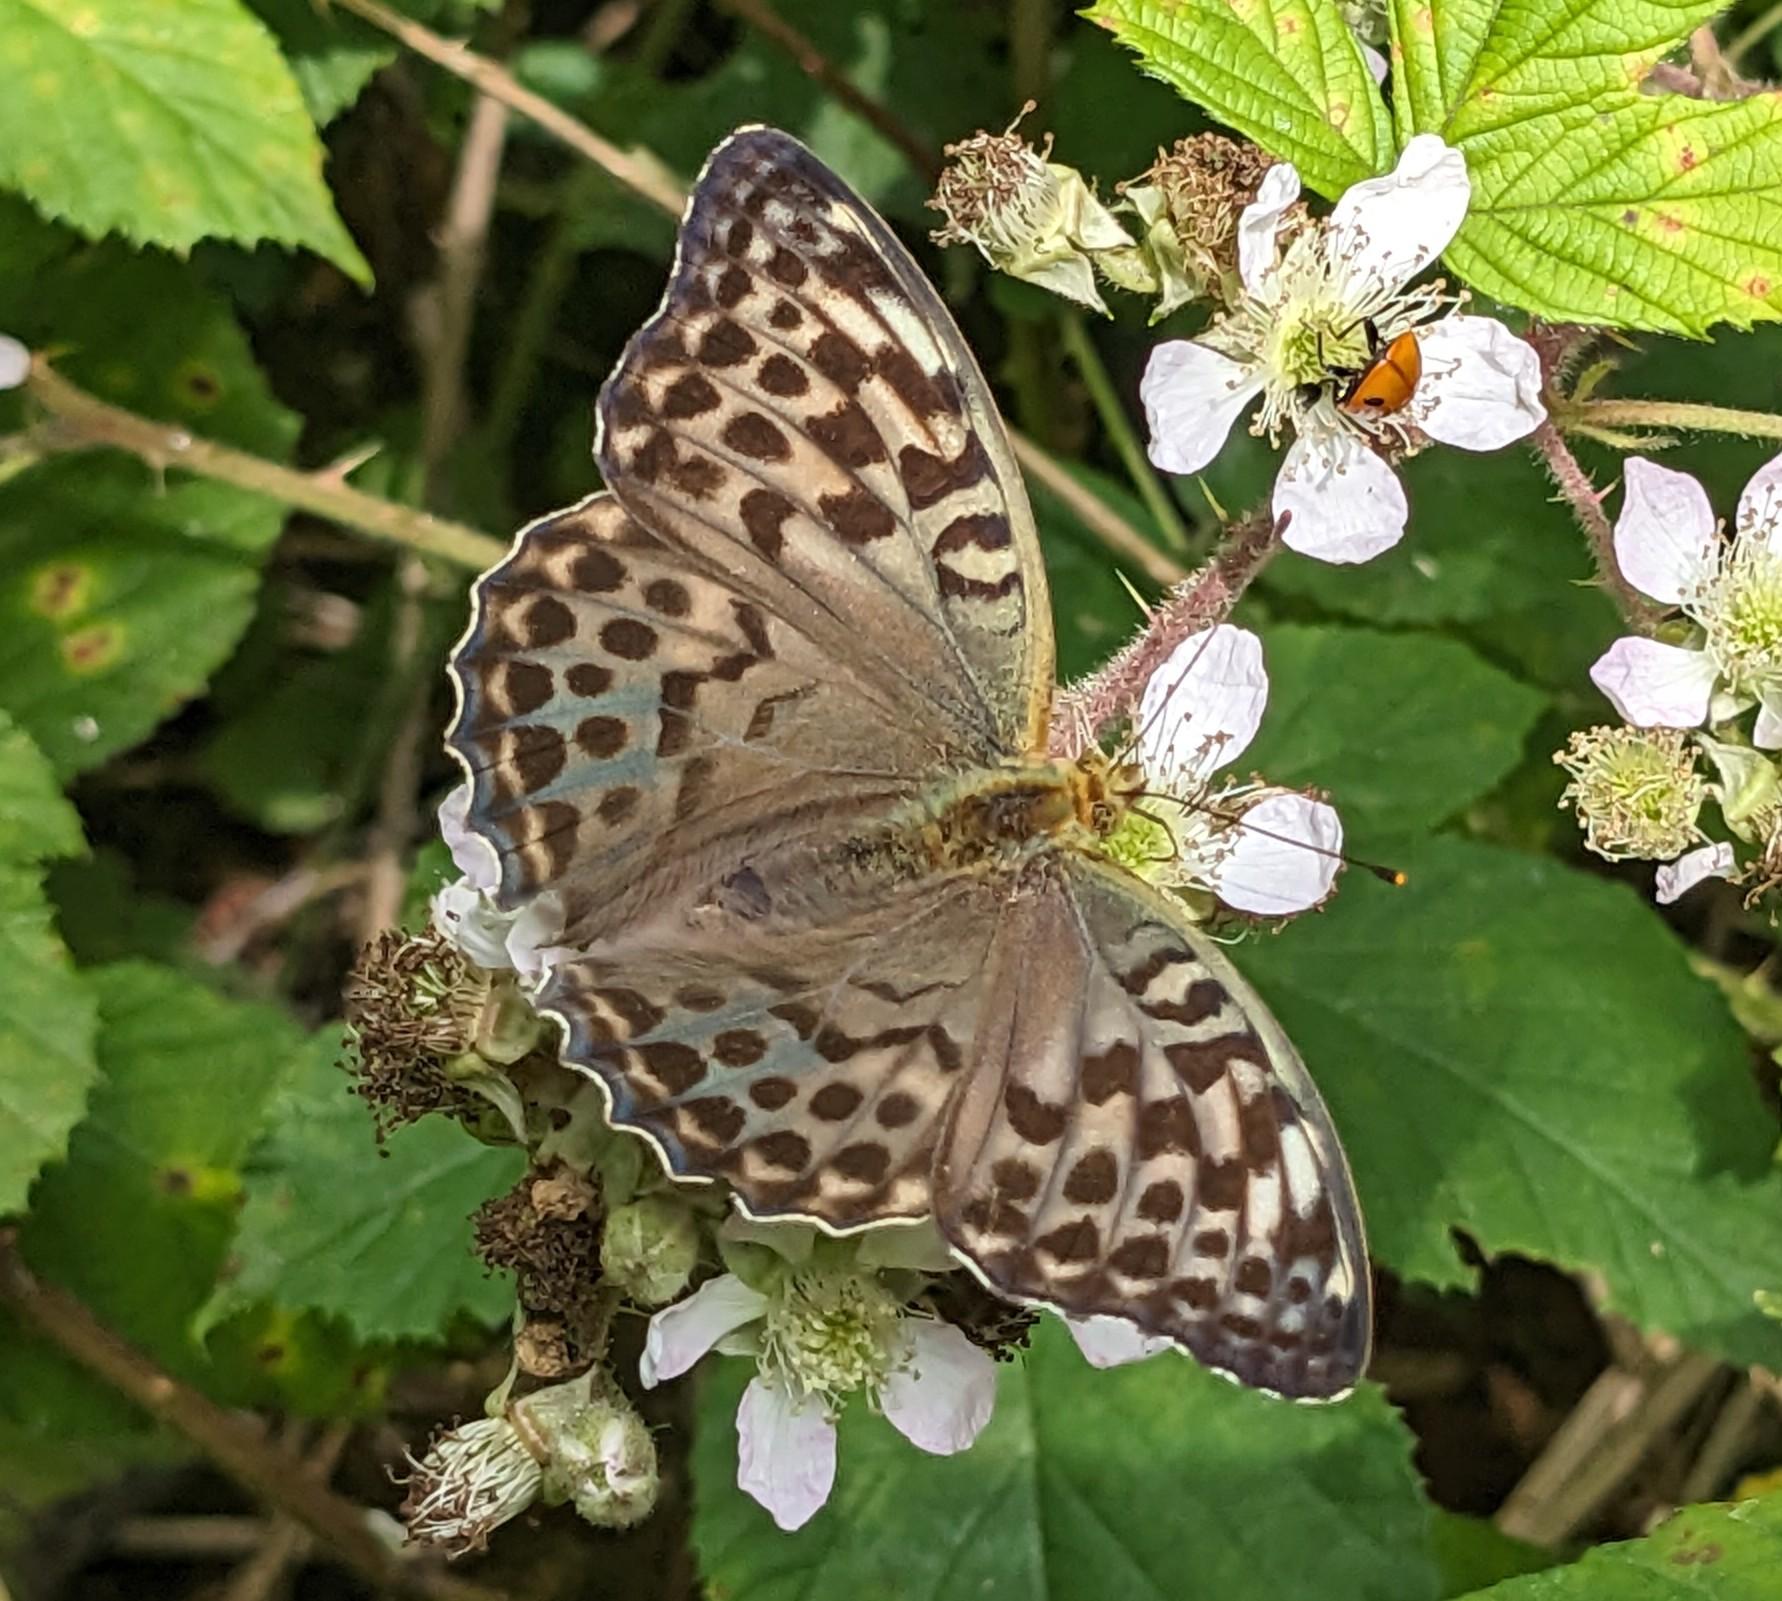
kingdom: Animalia
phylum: Arthropoda
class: Insecta
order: Lepidoptera
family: Nymphalidae
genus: Argynnis
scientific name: Argynnis paphia
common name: Kejserkåbe
